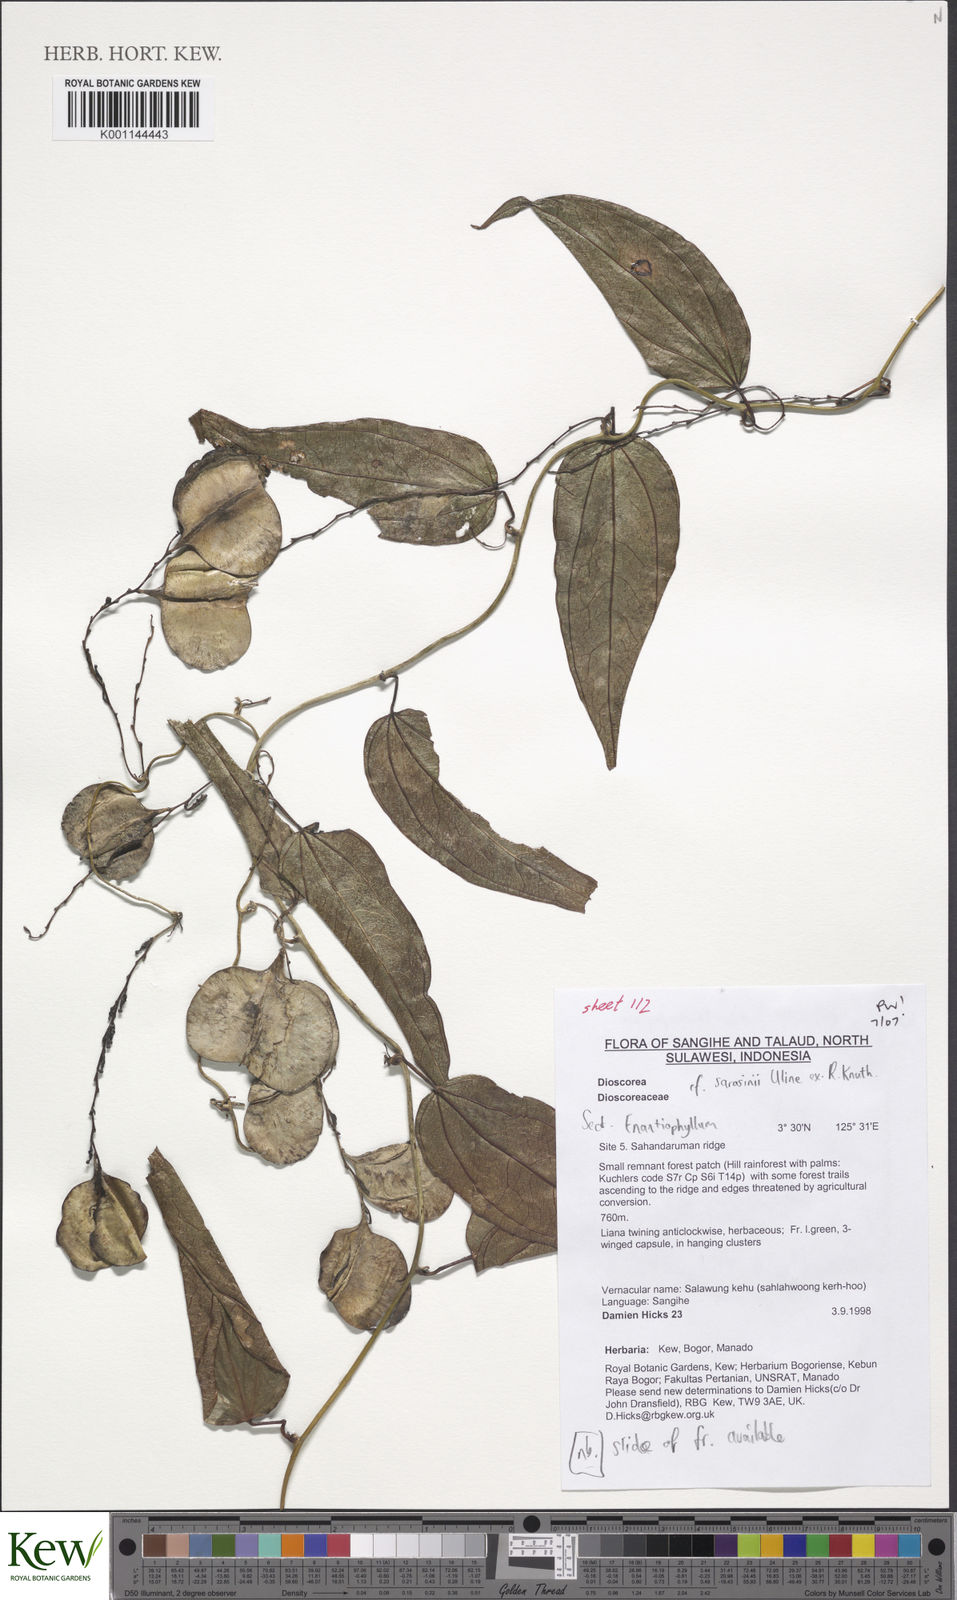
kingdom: Plantae
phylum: Tracheophyta
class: Liliopsida
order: Dioscoreales
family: Dioscoreaceae
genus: Dioscorea
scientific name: Dioscorea sarasinii
